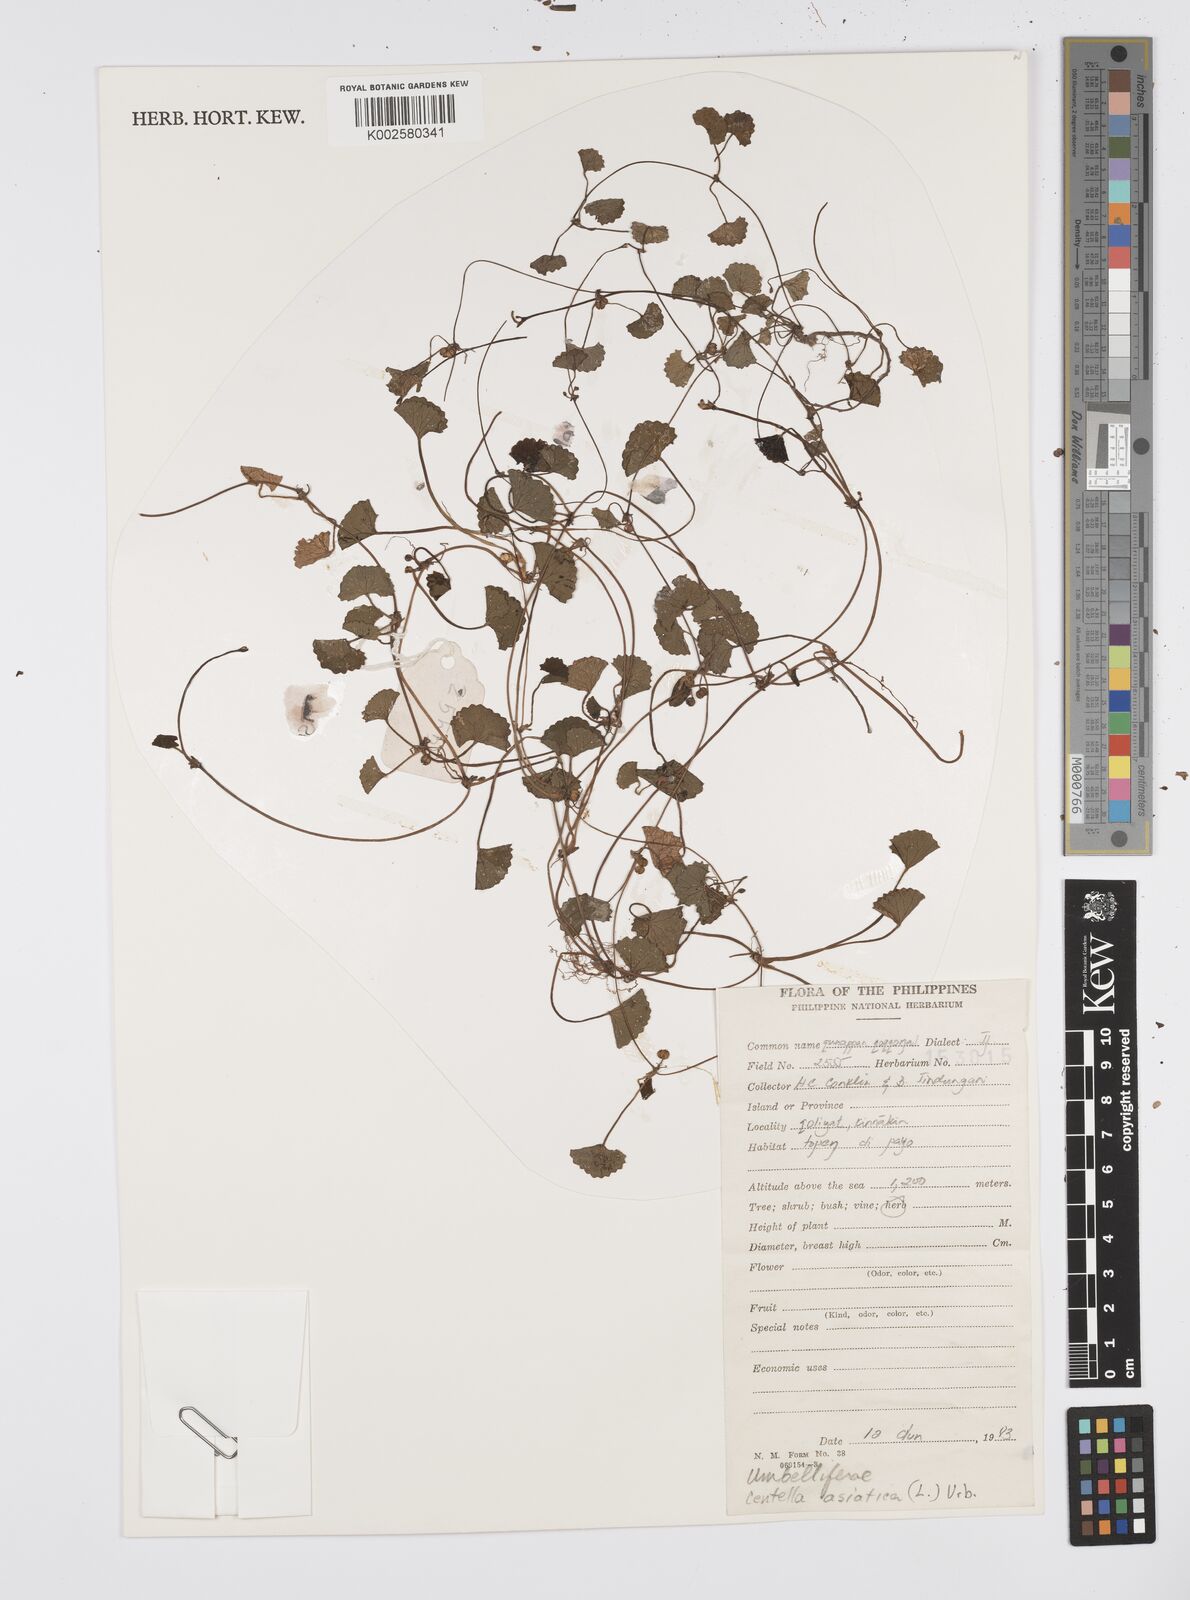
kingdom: Plantae
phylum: Tracheophyta
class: Magnoliopsida
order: Apiales
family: Apiaceae
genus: Centella
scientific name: Centella asiatica
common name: Spadeleaf
